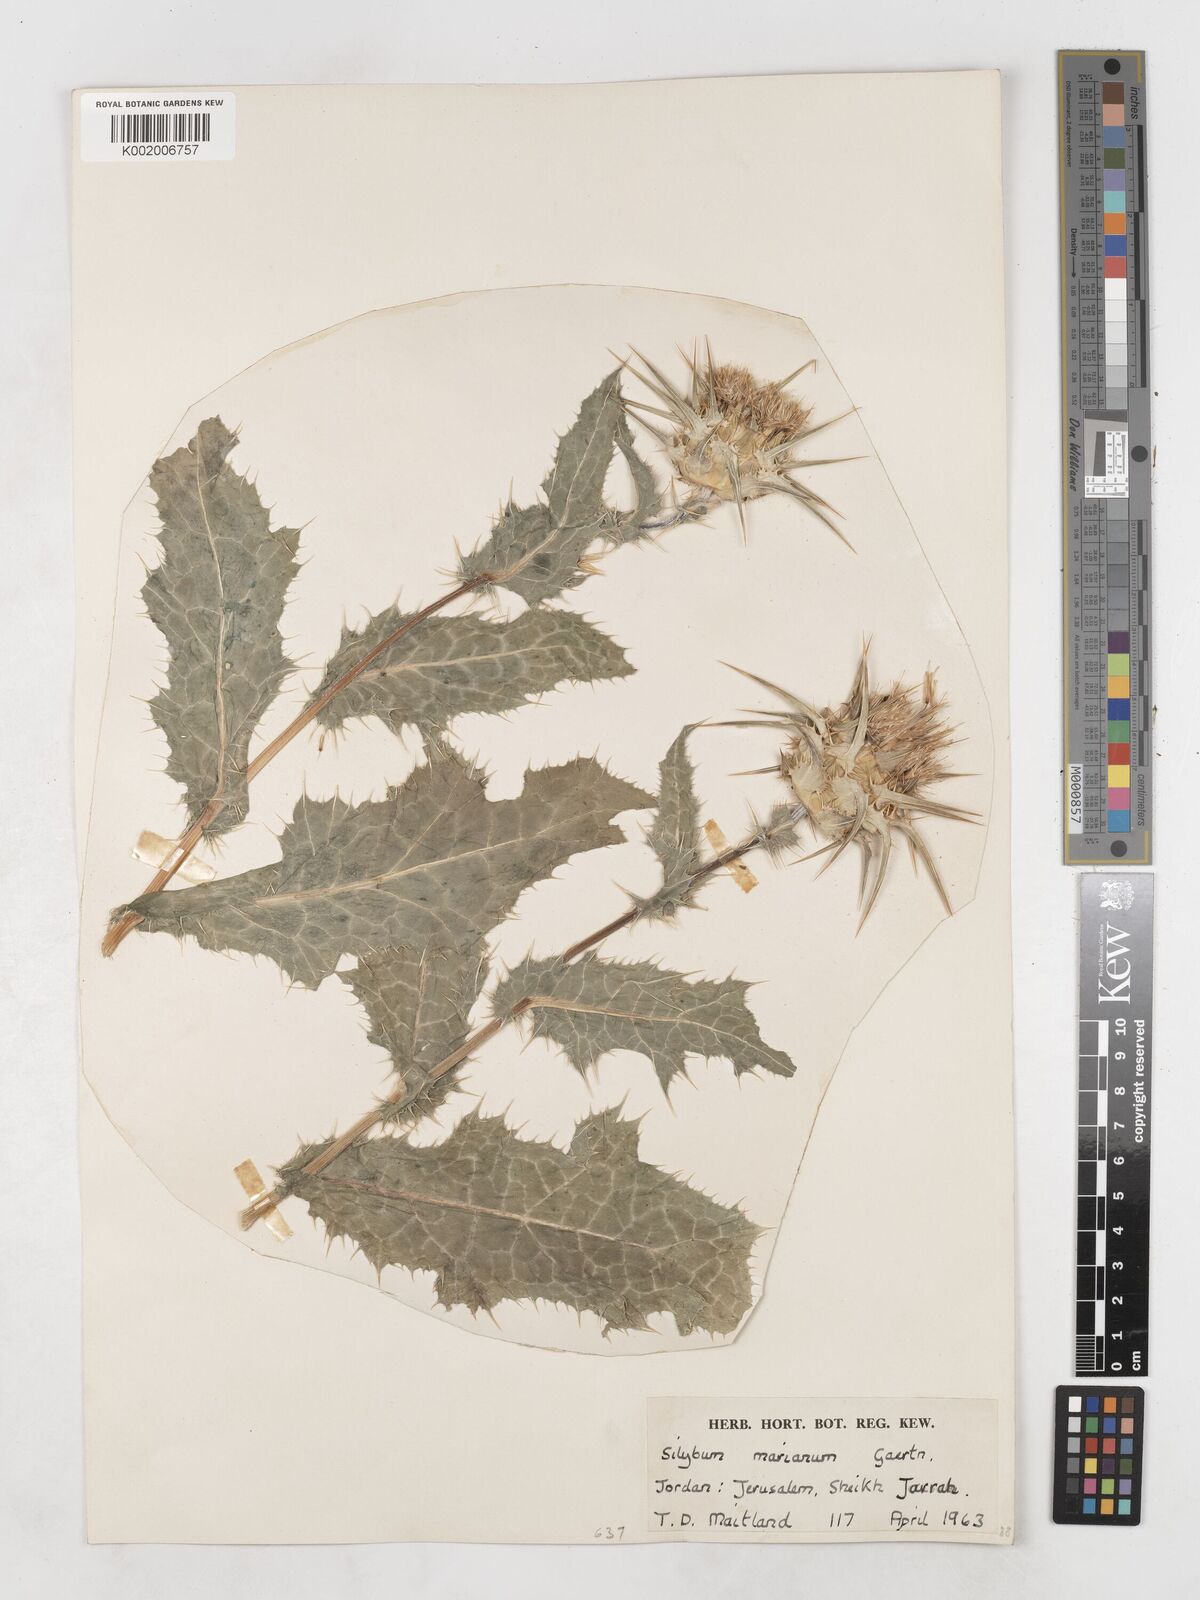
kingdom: Plantae
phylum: Tracheophyta
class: Magnoliopsida
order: Asterales
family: Asteraceae
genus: Silybum
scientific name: Silybum marianum
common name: Milk thistle
